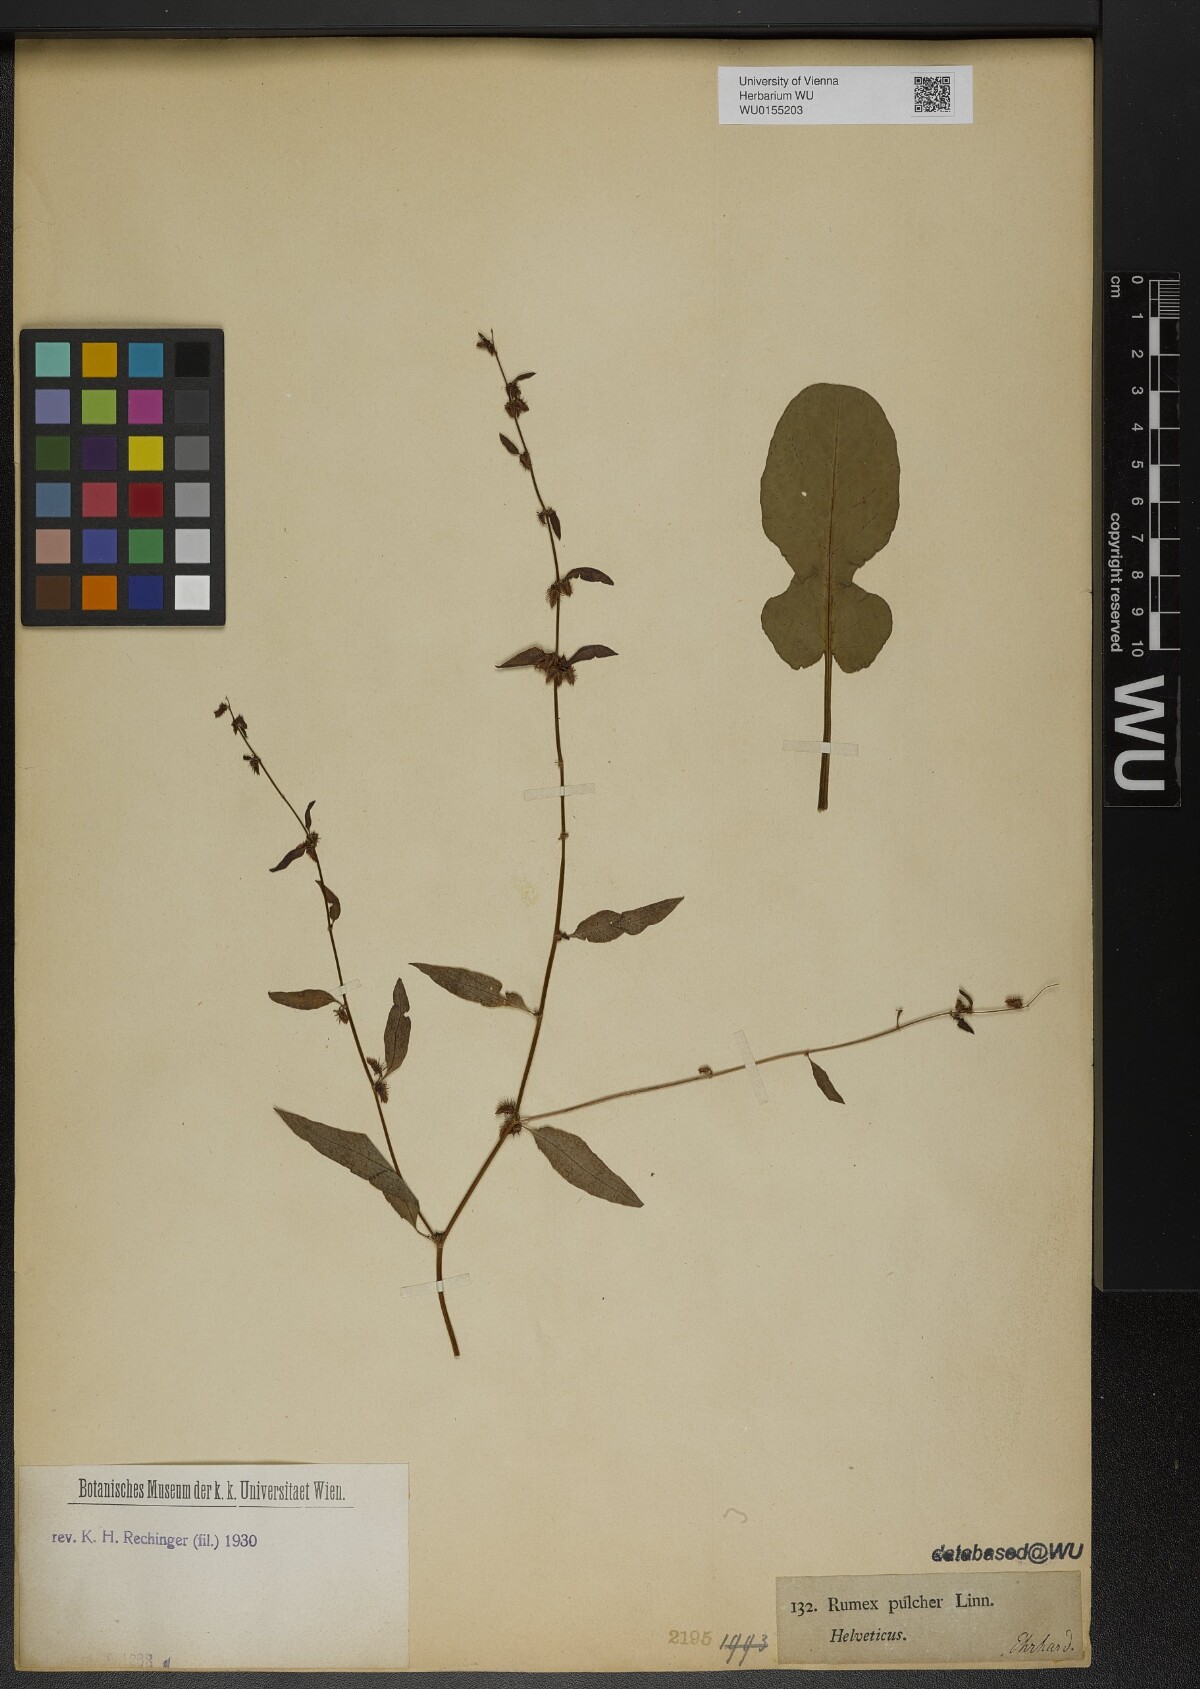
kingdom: Plantae
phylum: Tracheophyta
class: Magnoliopsida
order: Caryophyllales
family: Polygonaceae
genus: Rumex
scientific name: Rumex pulcher
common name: Fiddle dock
